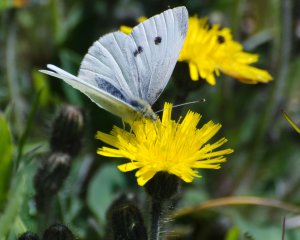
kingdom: Animalia
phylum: Arthropoda
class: Insecta
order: Lepidoptera
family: Pieridae
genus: Pieris
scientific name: Pieris rapae
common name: Cabbage White
